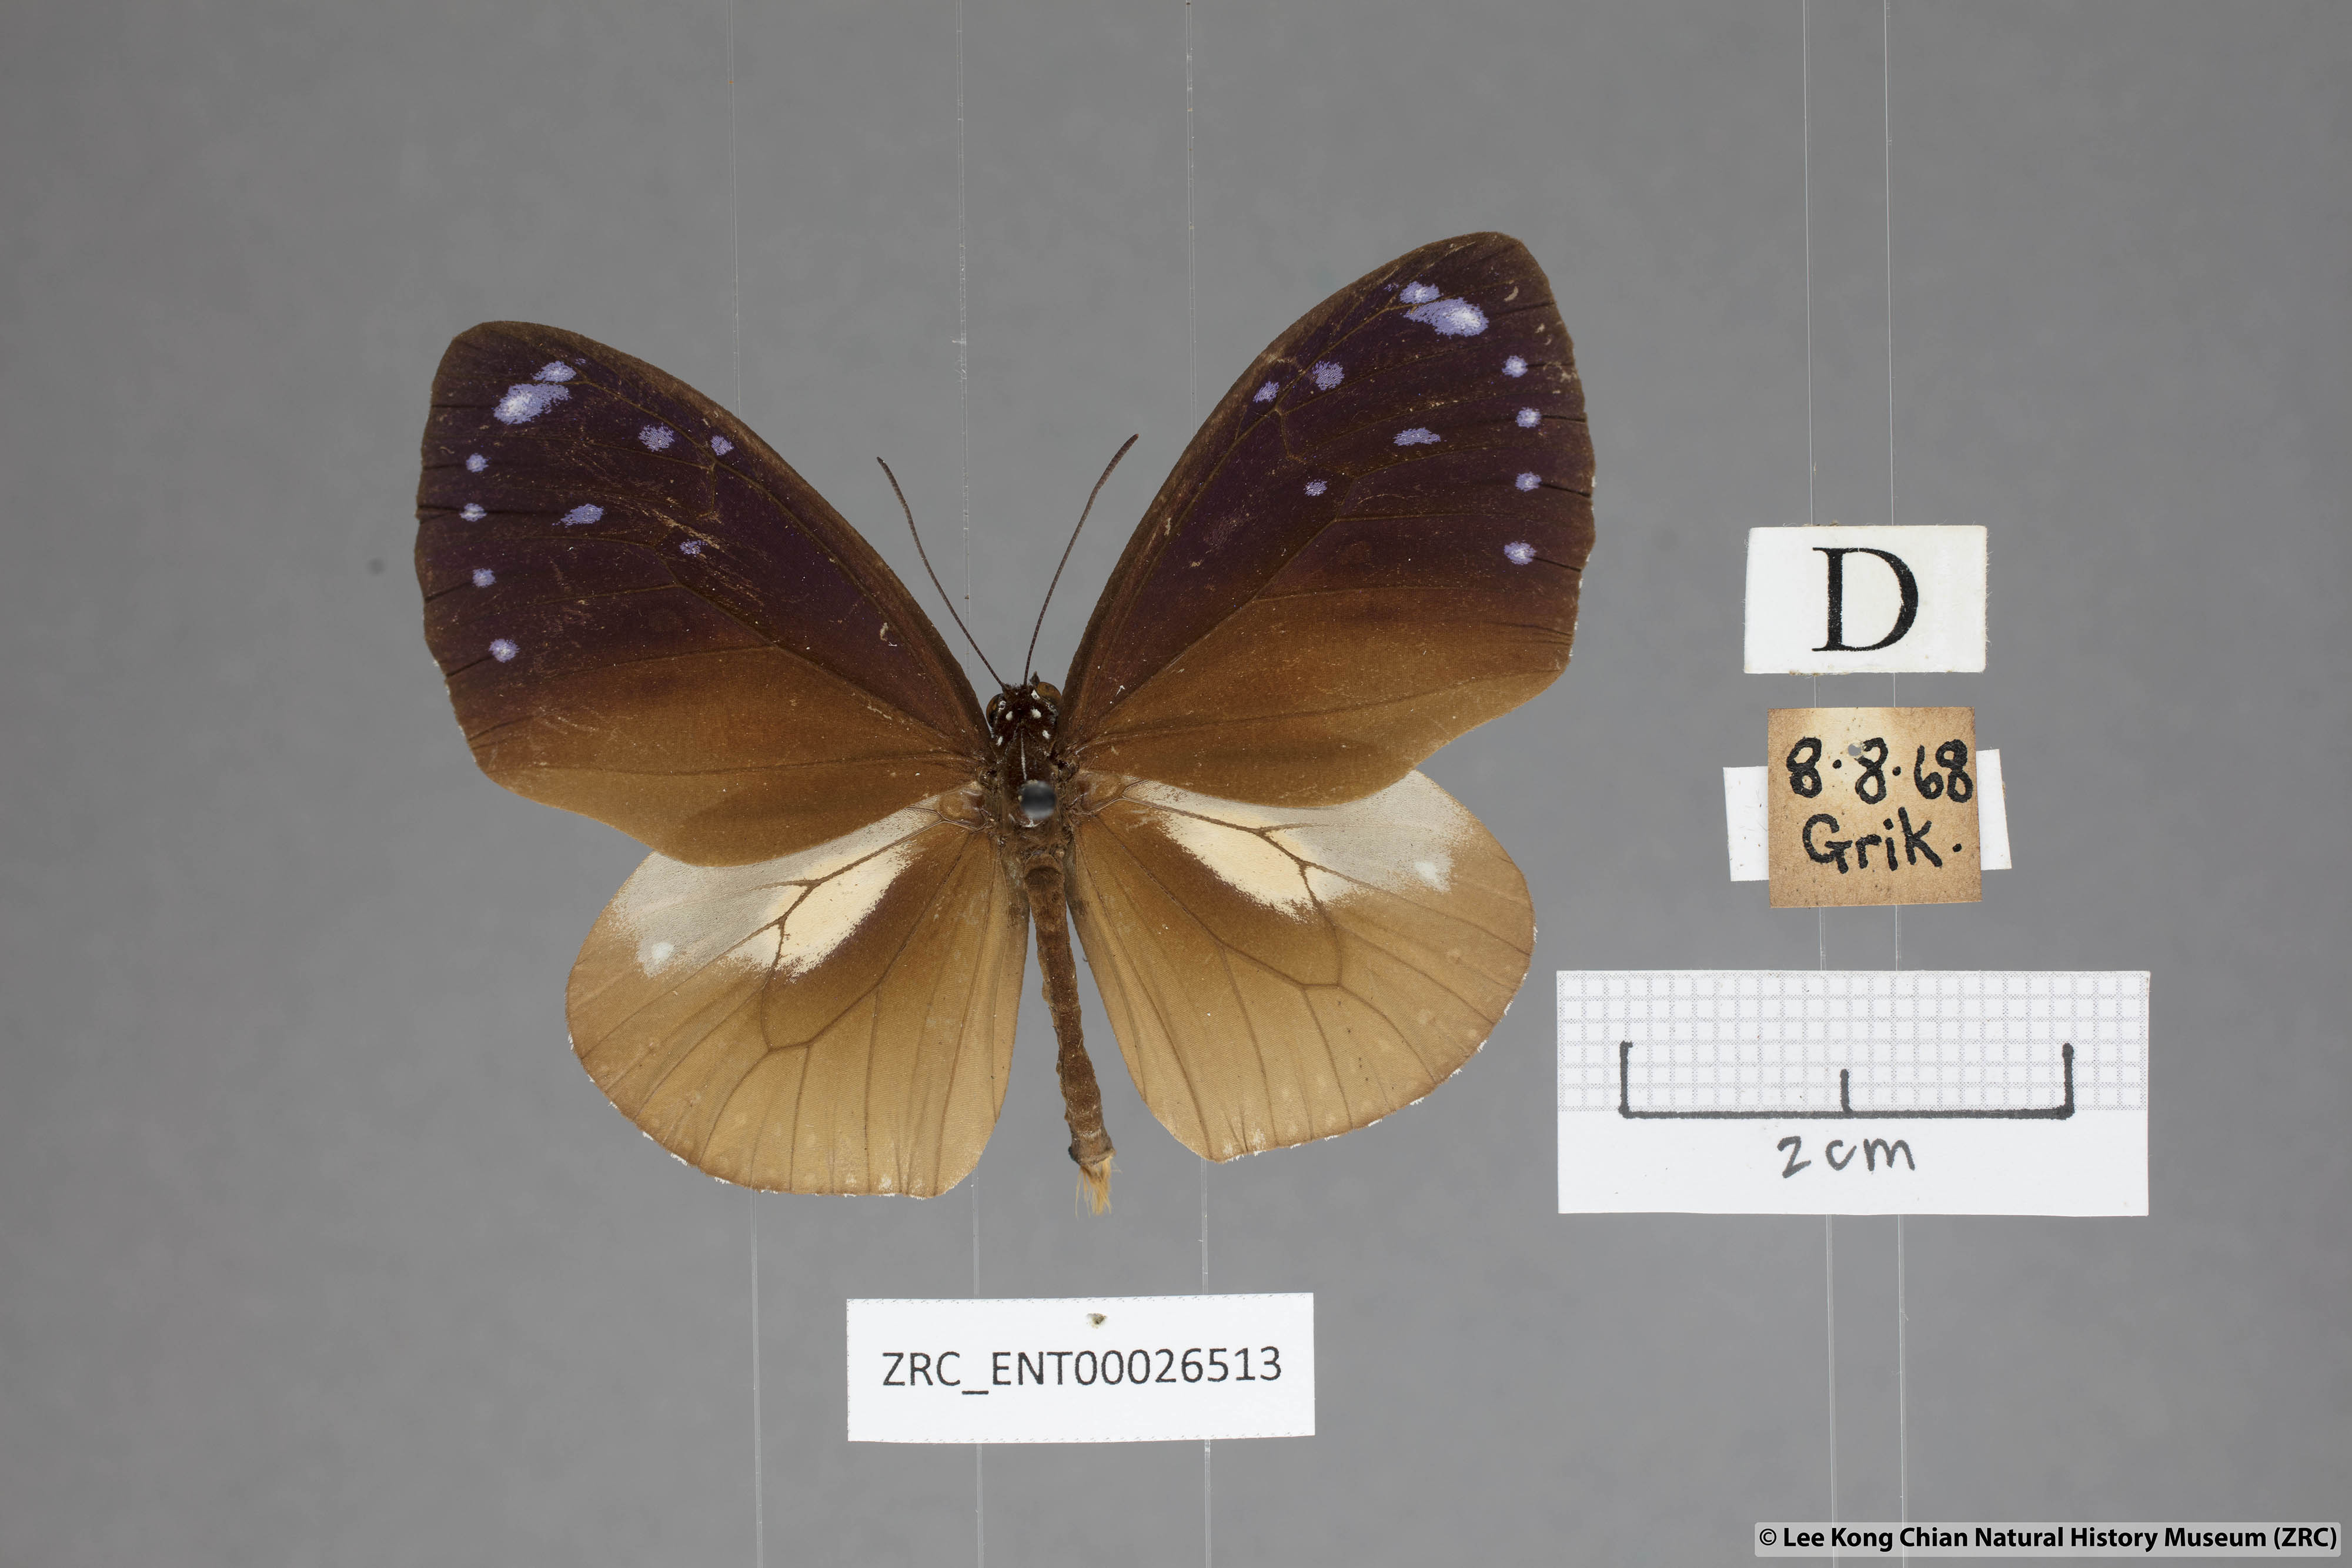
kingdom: Animalia
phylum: Arthropoda
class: Insecta
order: Lepidoptera
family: Nymphalidae
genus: Euploea
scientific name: Euploea tulliolus
